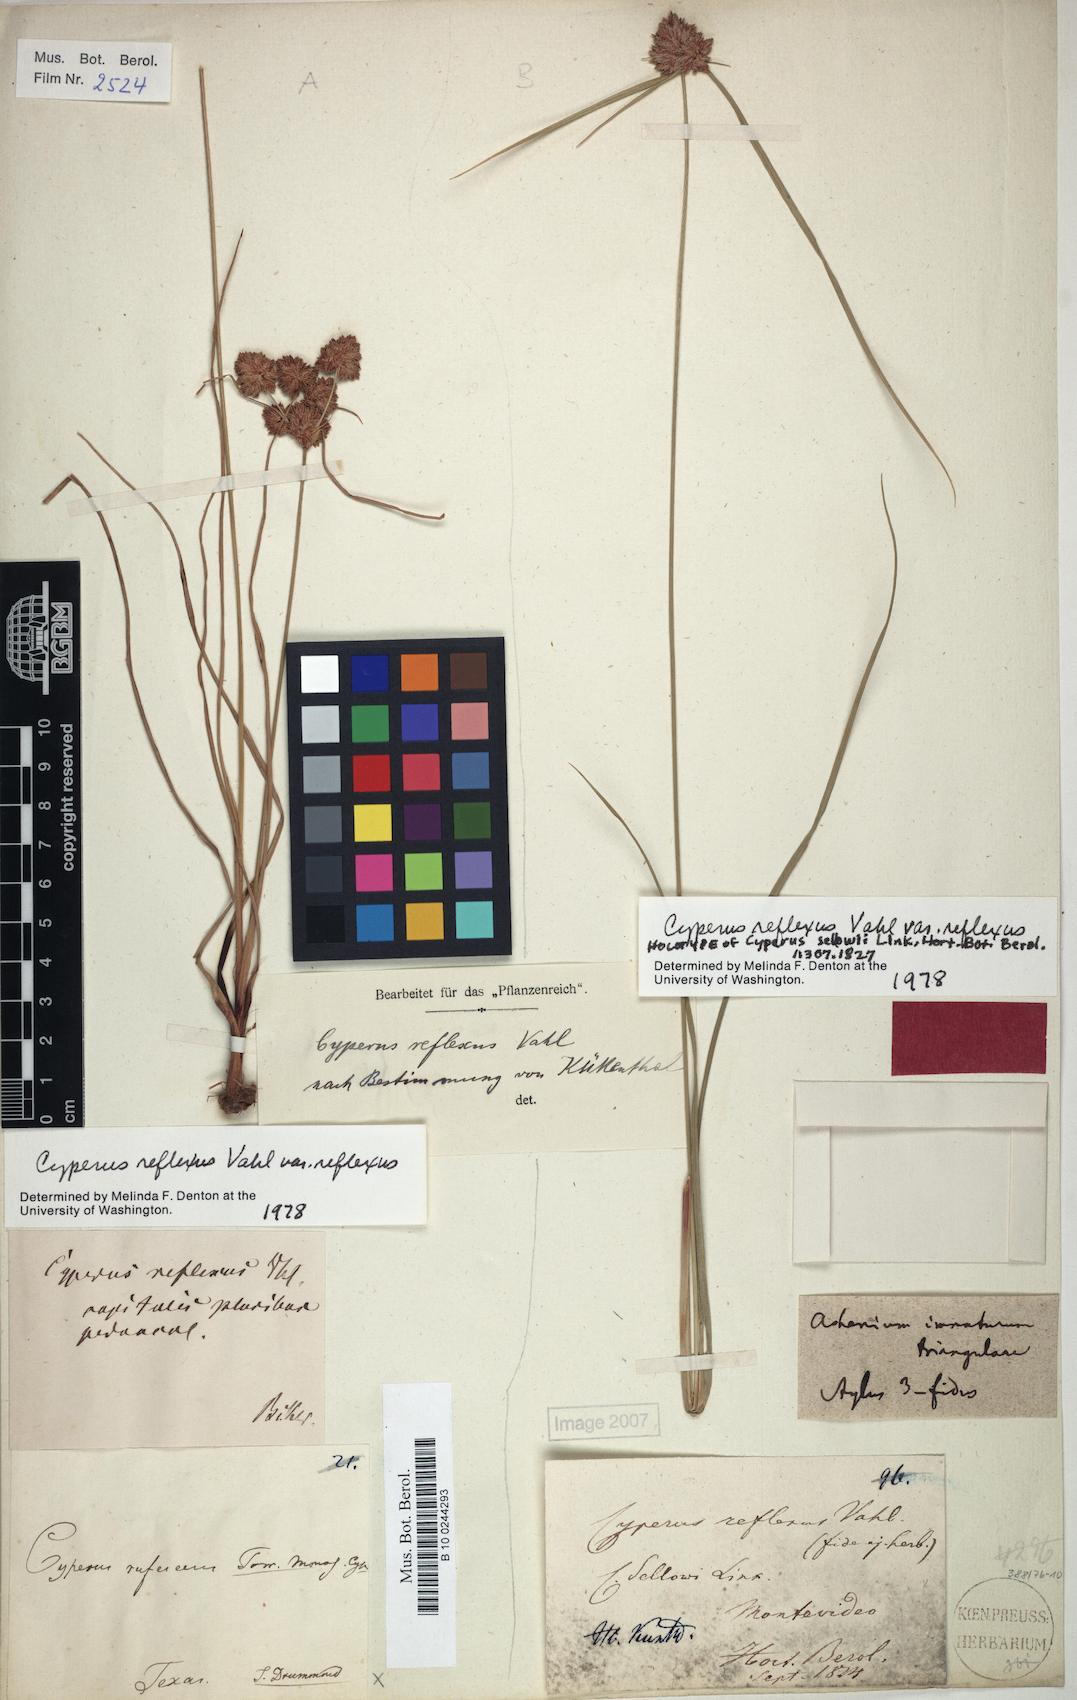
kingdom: Plantae
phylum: Tracheophyta
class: Liliopsida
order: Poales
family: Cyperaceae
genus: Cyperus
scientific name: Cyperus reflexus
